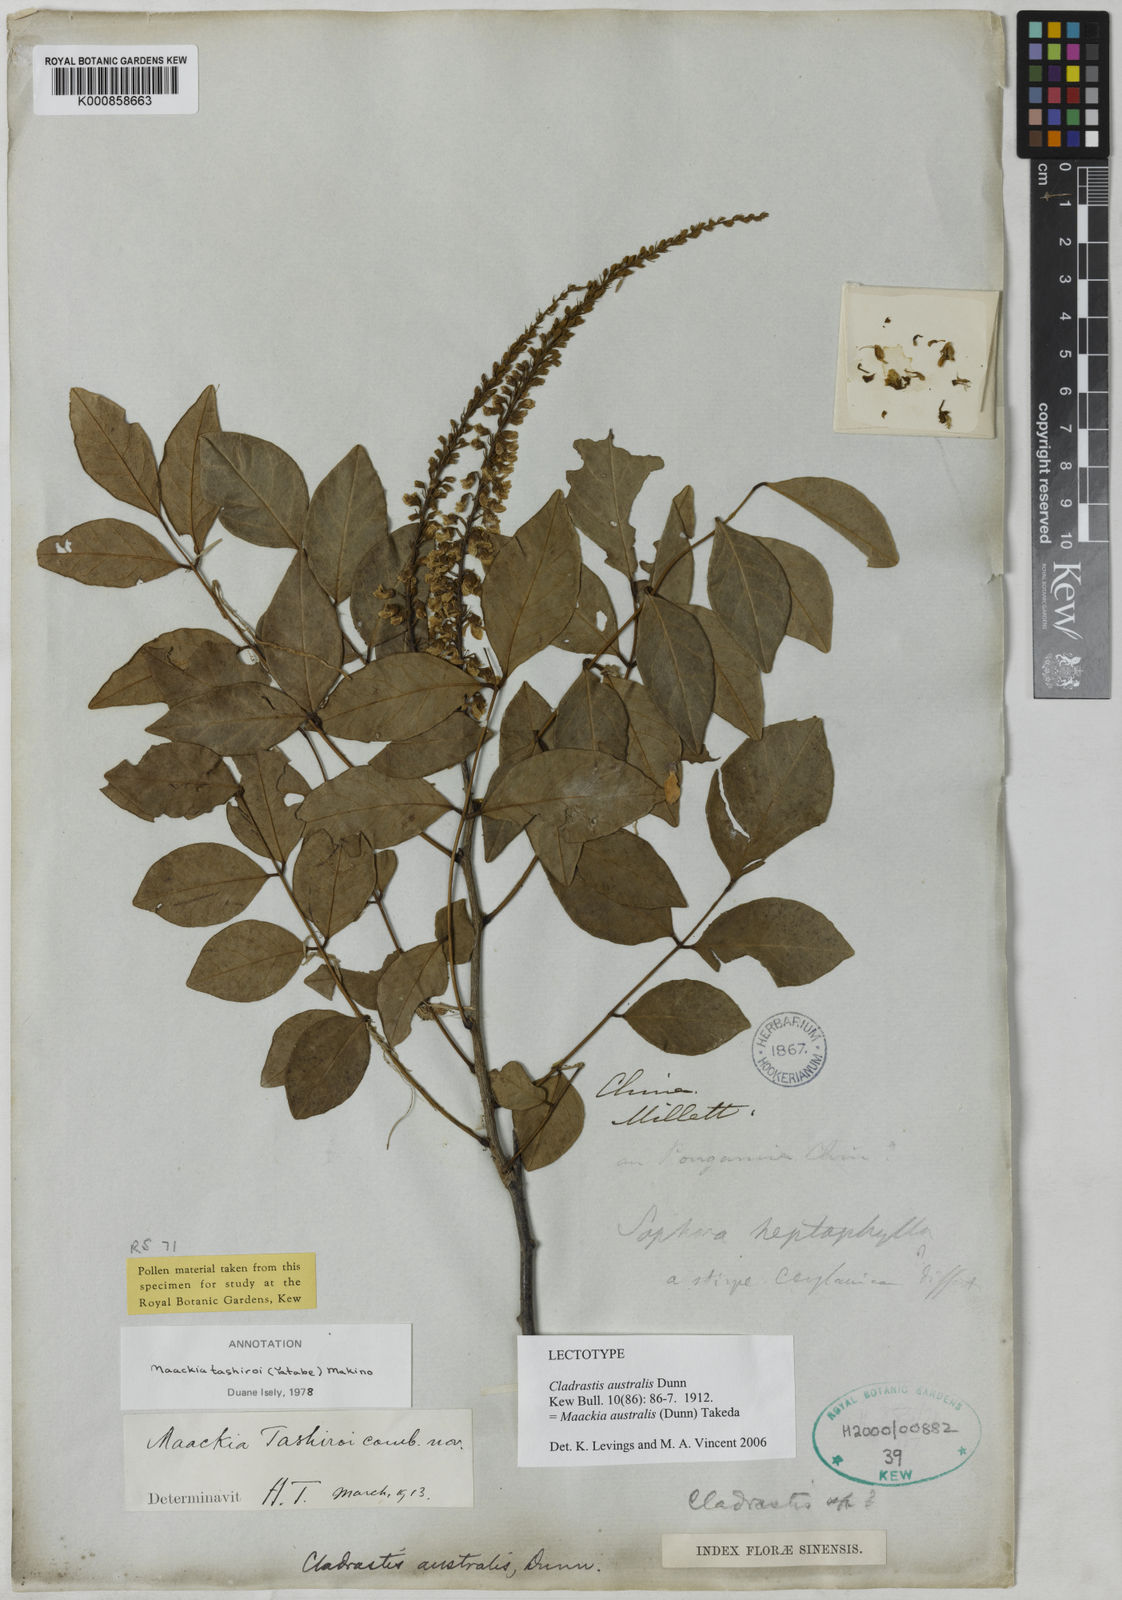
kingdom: Plantae
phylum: Tracheophyta
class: Magnoliopsida
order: Fabales
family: Fabaceae
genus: Maackia
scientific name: Maackia australis
